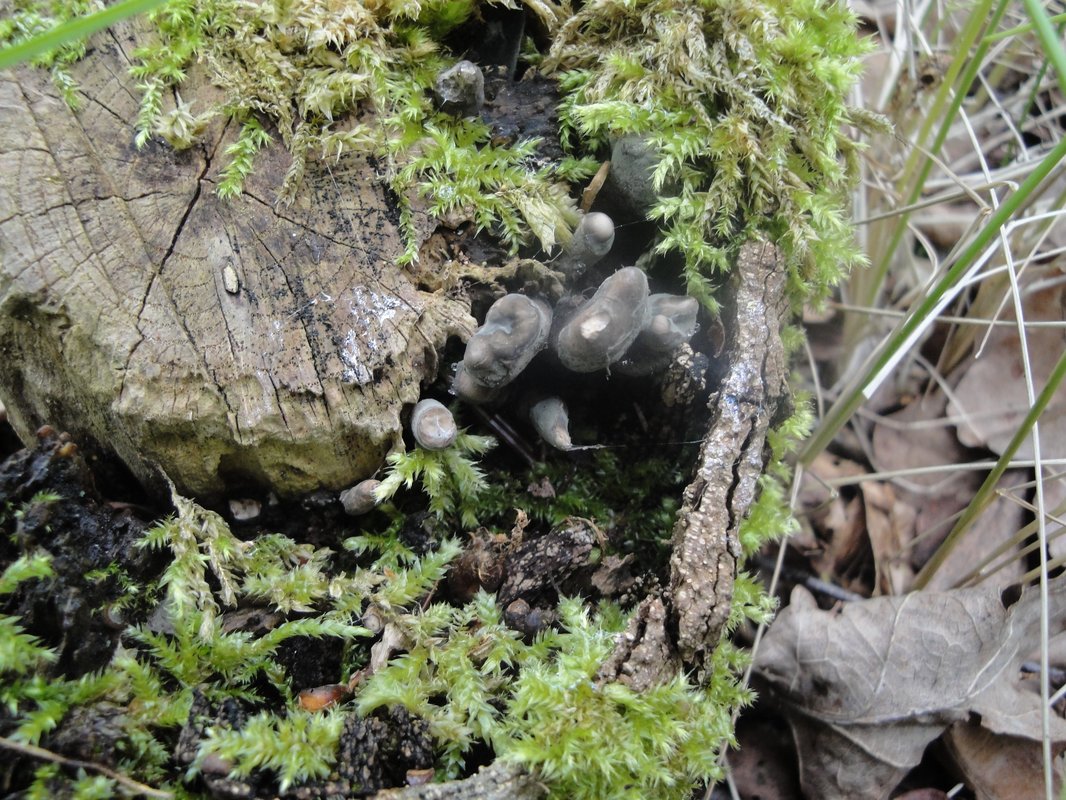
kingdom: Fungi
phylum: Ascomycota
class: Sordariomycetes
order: Xylariales
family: Xylariaceae
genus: Xylaria
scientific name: Xylaria polymorpha
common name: kølle-stødsvamp
